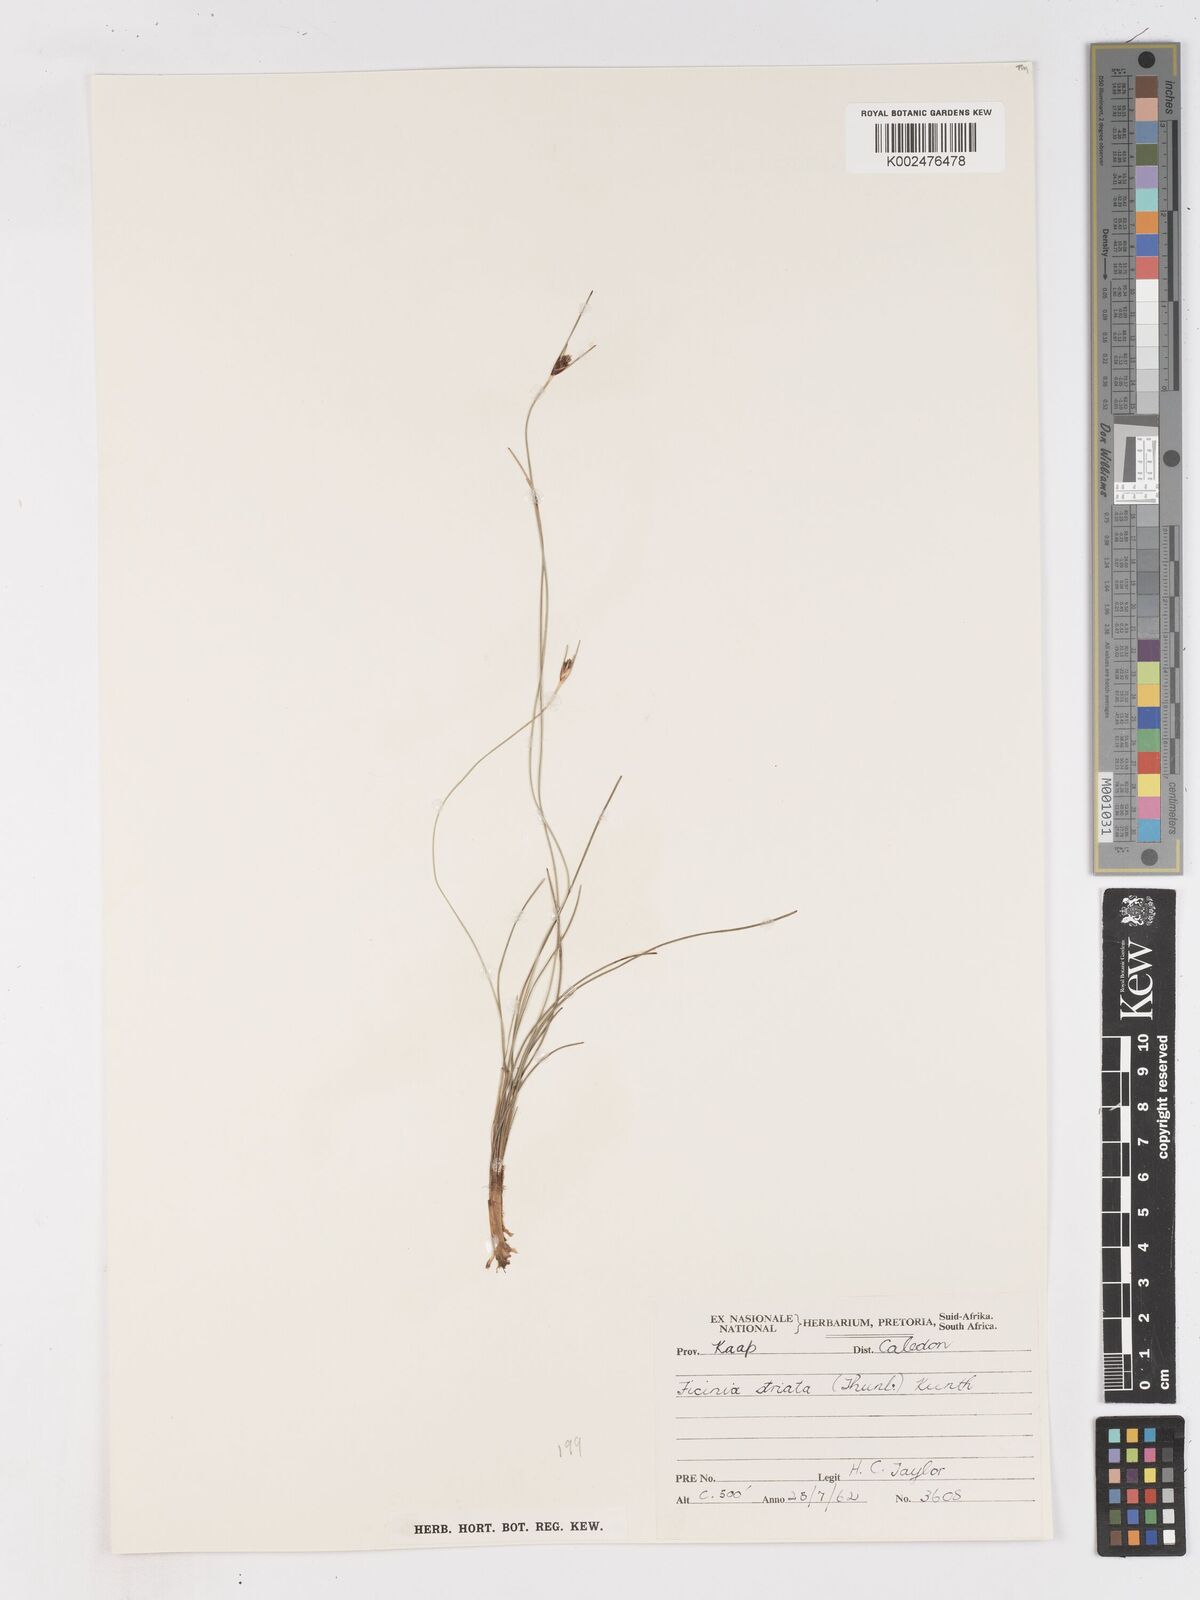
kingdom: Plantae
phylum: Tracheophyta
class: Liliopsida
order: Poales
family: Cyperaceae
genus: Ficinia
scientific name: Ficinia indica
